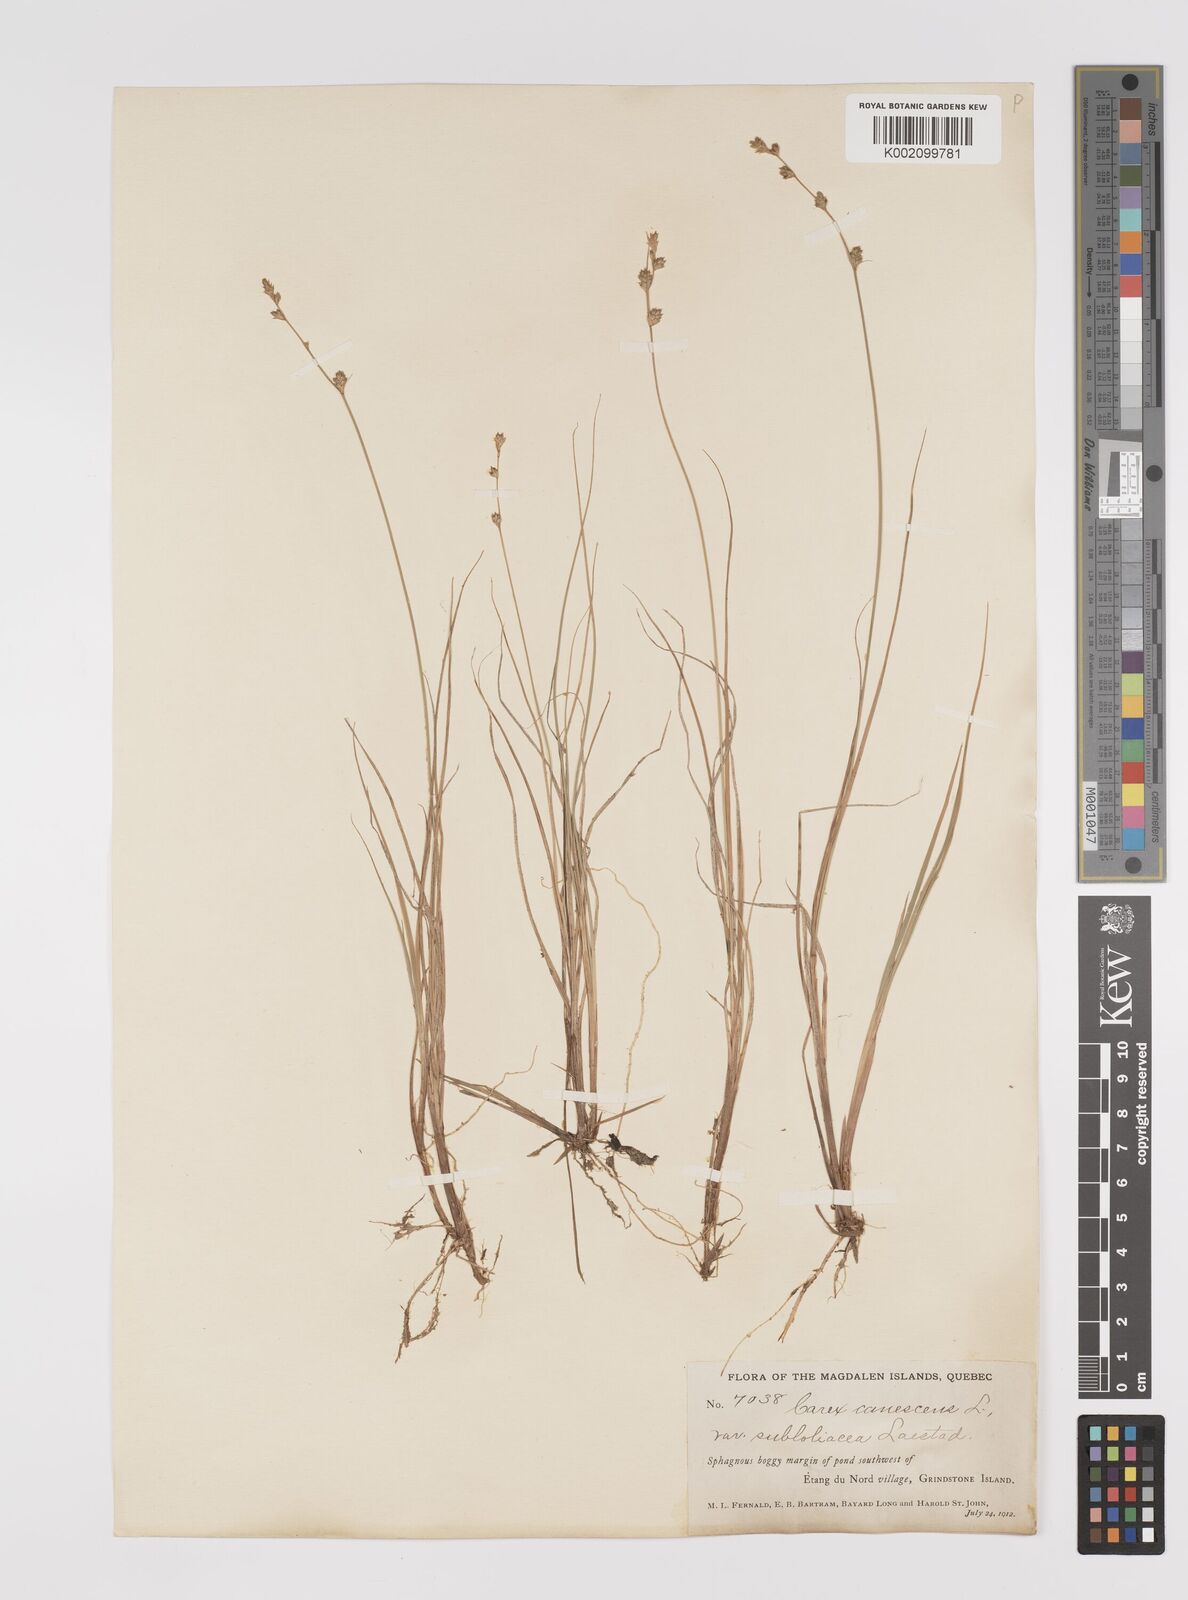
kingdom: Plantae
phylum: Tracheophyta
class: Liliopsida
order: Poales
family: Cyperaceae
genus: Carex
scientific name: Carex curta
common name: White sedge
